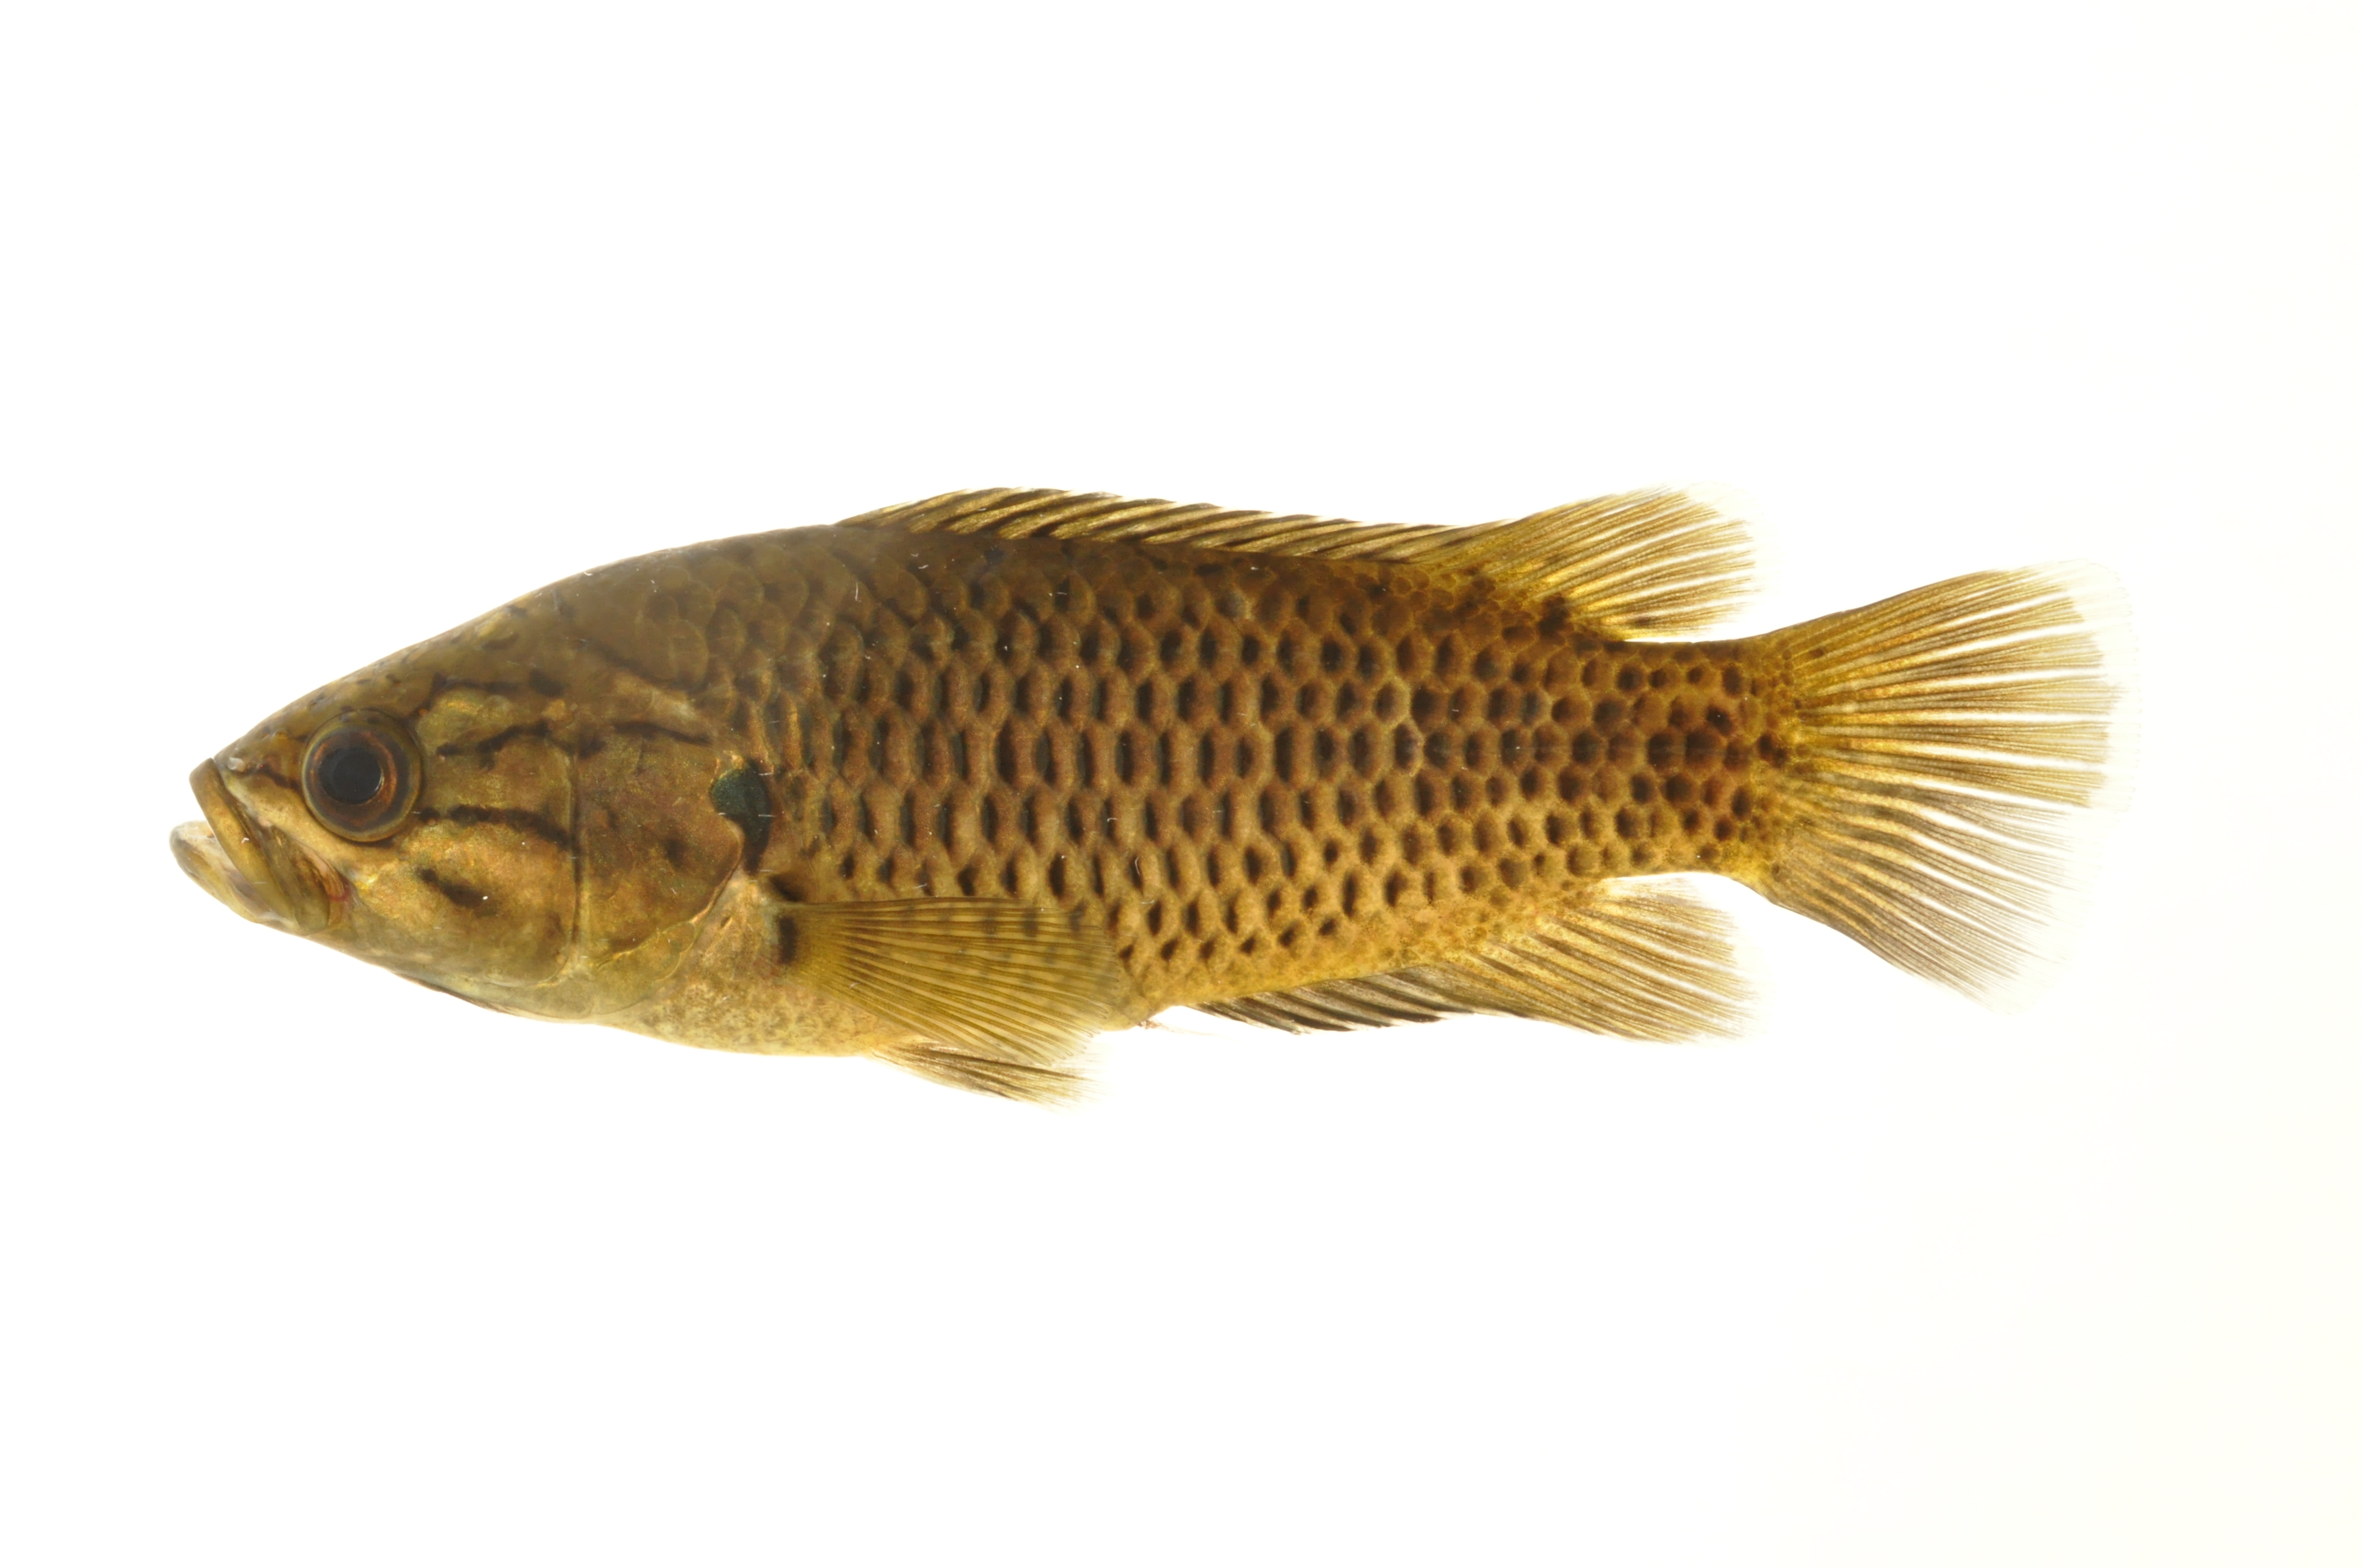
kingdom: Animalia
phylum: Chordata
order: Perciformes
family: Anabantidae
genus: Sandelia
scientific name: Sandelia capensis
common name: Cape kurper
